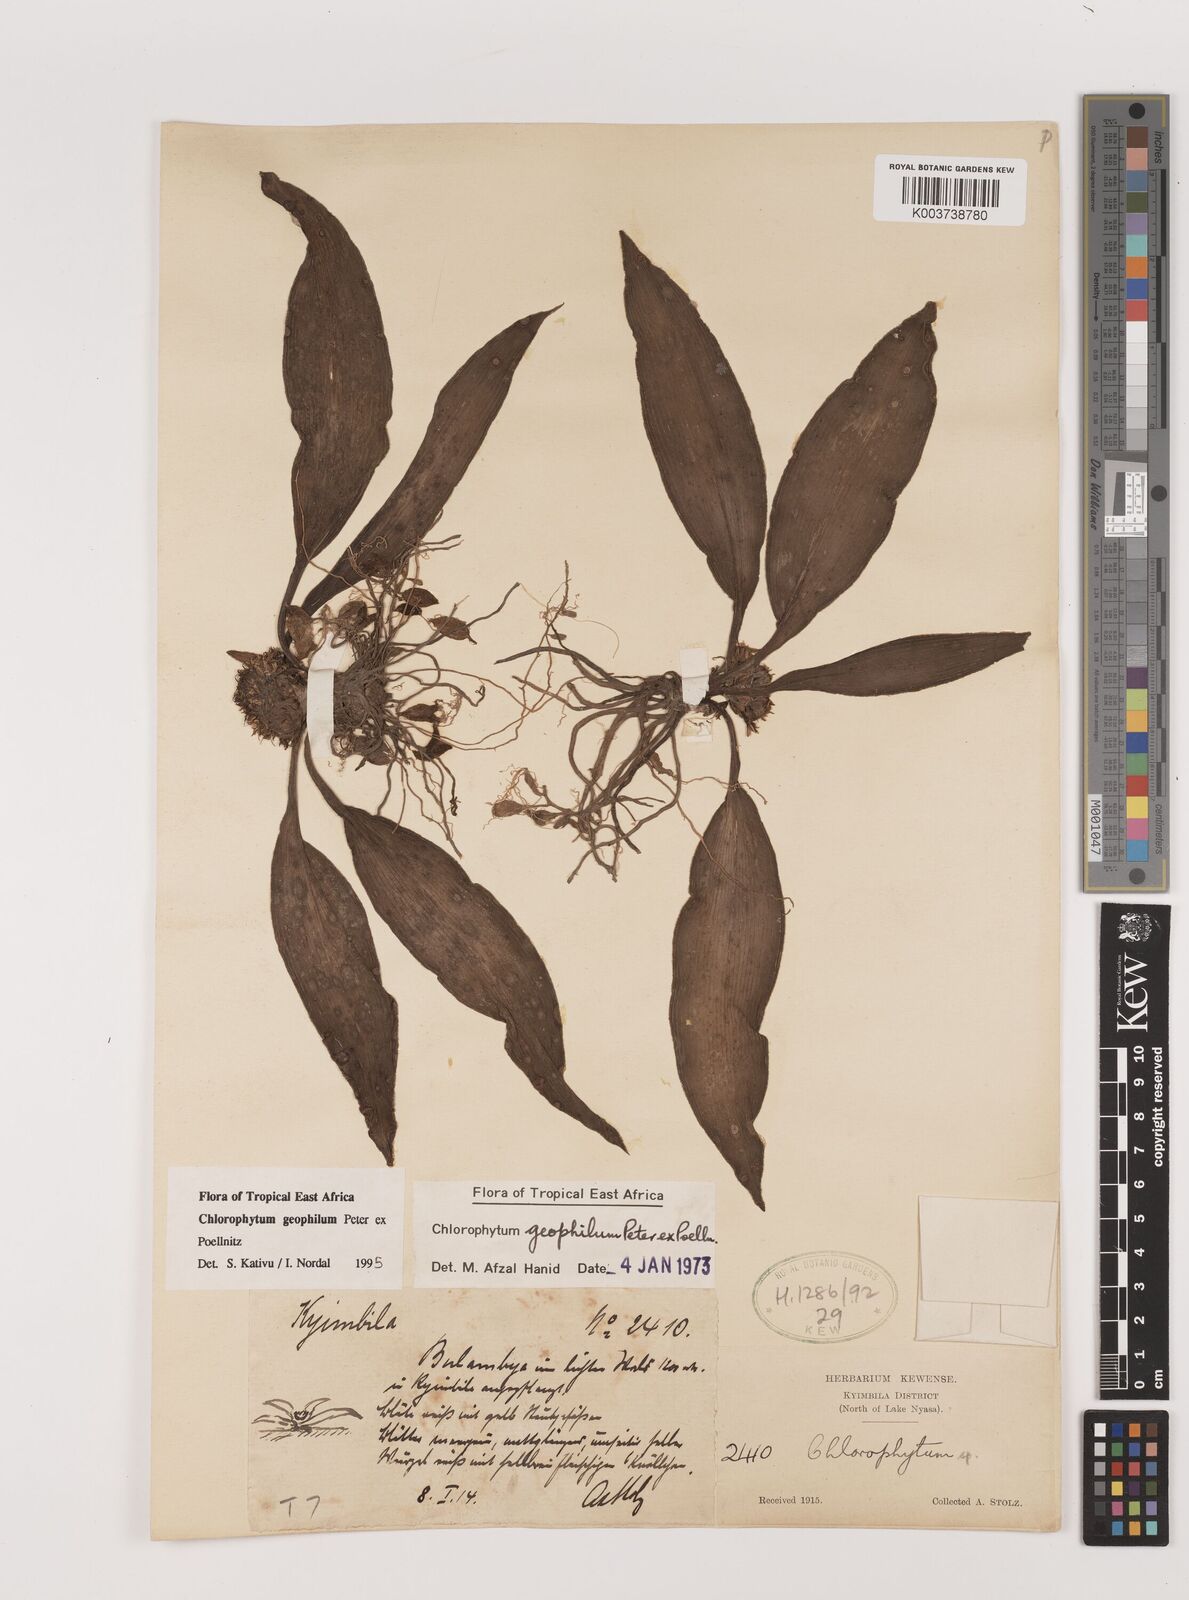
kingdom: Plantae
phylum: Tracheophyta
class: Liliopsida
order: Asparagales
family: Asparagaceae
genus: Chlorophytum
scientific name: Chlorophytum geophilum
